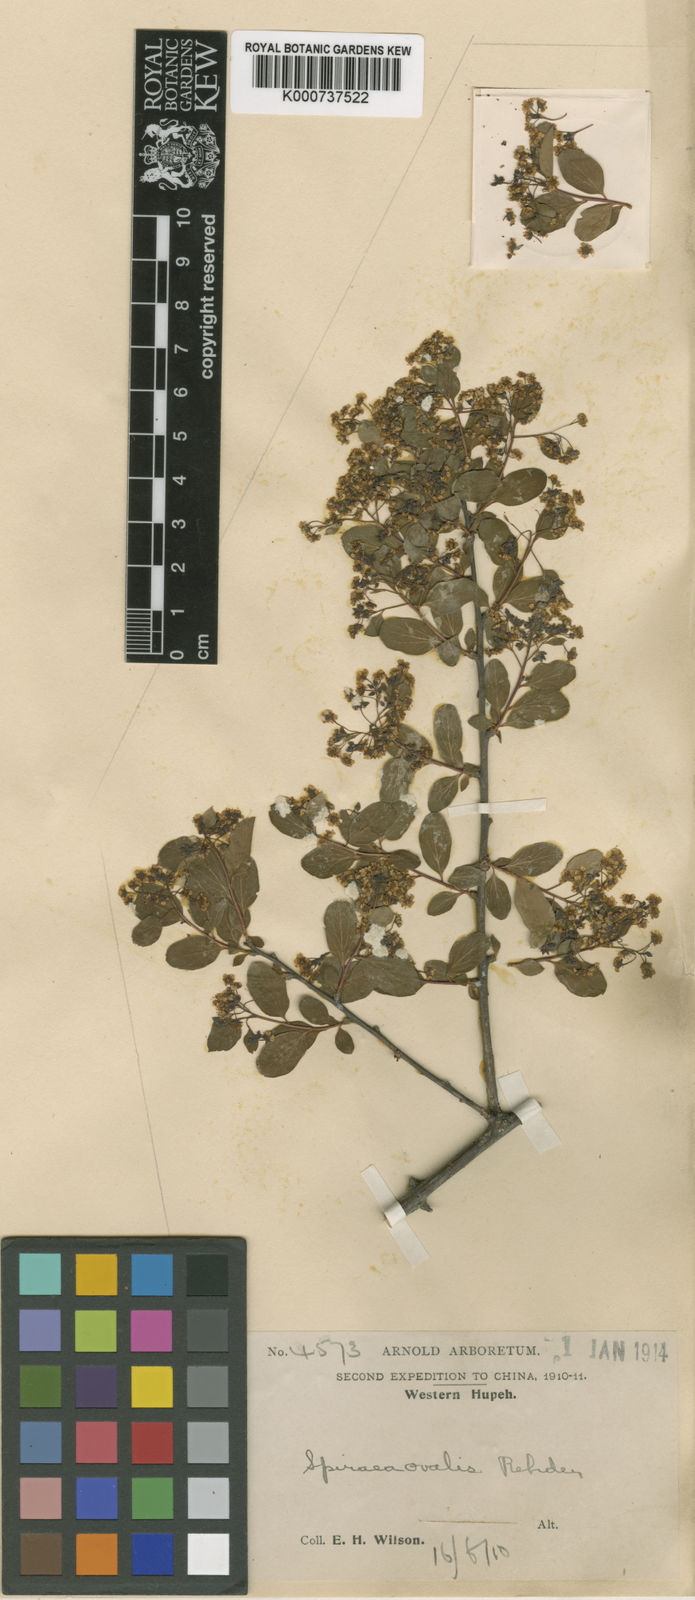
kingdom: Plantae
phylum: Tracheophyta
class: Magnoliopsida
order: Rosales
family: Rosaceae
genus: Spiraea
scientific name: Spiraea ovalis
